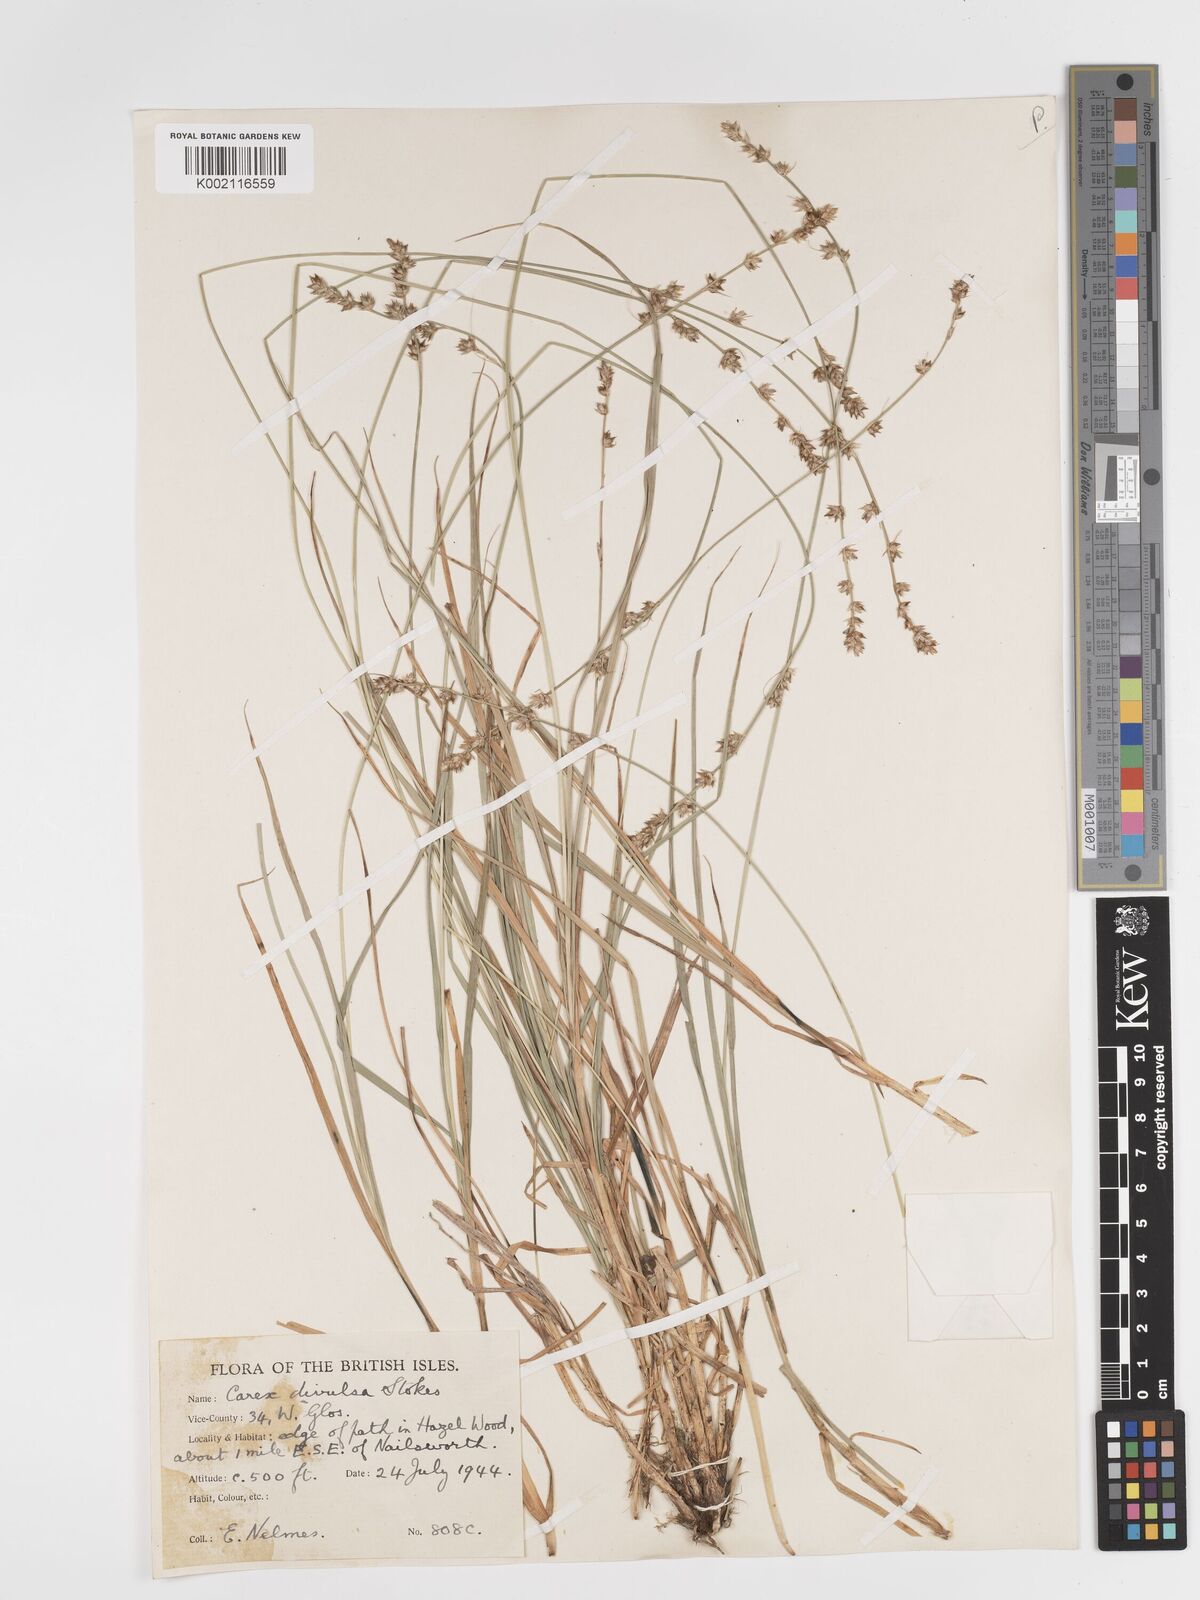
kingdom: Plantae
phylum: Tracheophyta
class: Liliopsida
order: Poales
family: Cyperaceae
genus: Carex
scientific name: Carex divulsa
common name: Grassland sedge
